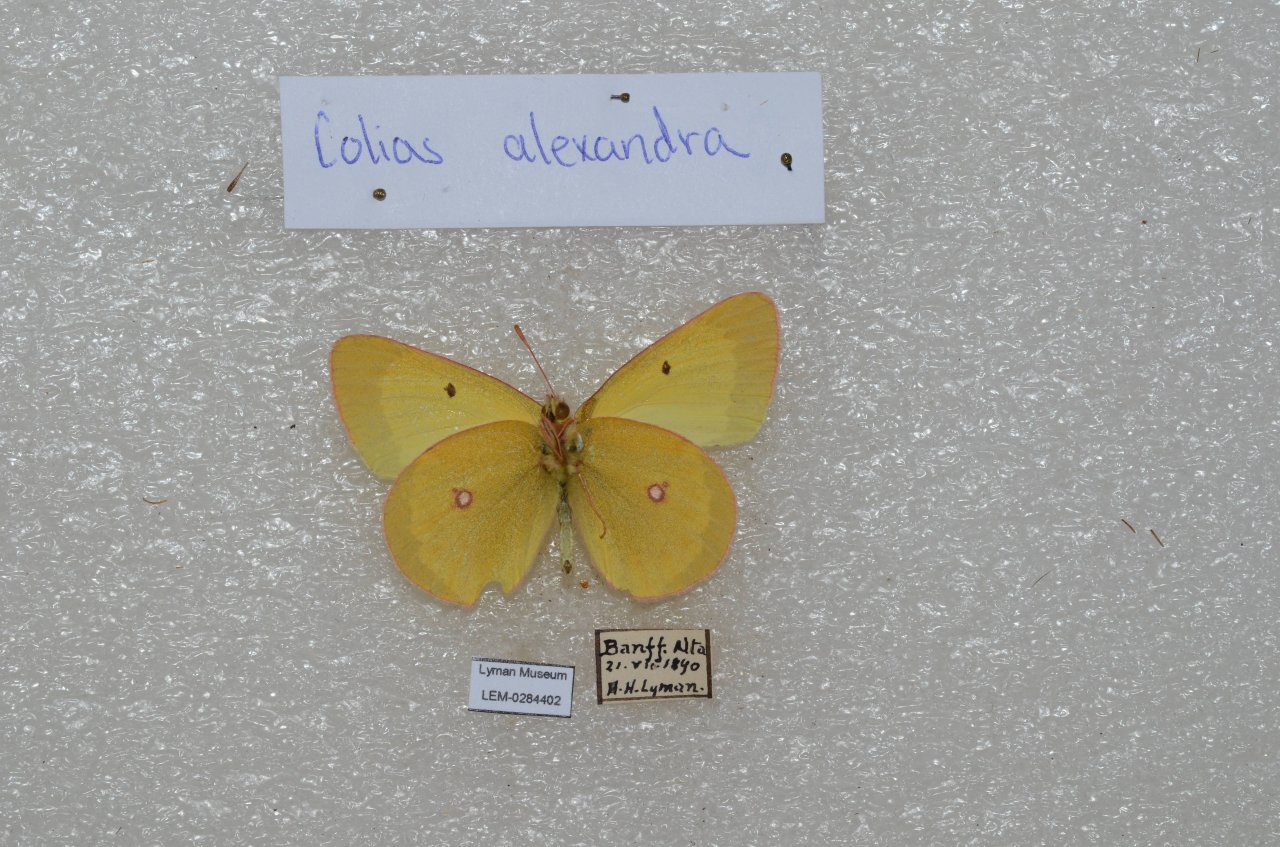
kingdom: Animalia
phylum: Arthropoda
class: Insecta
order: Lepidoptera
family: Pieridae
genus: Colias
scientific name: Colias alexandra
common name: Queen Alexandra's Sulphur
